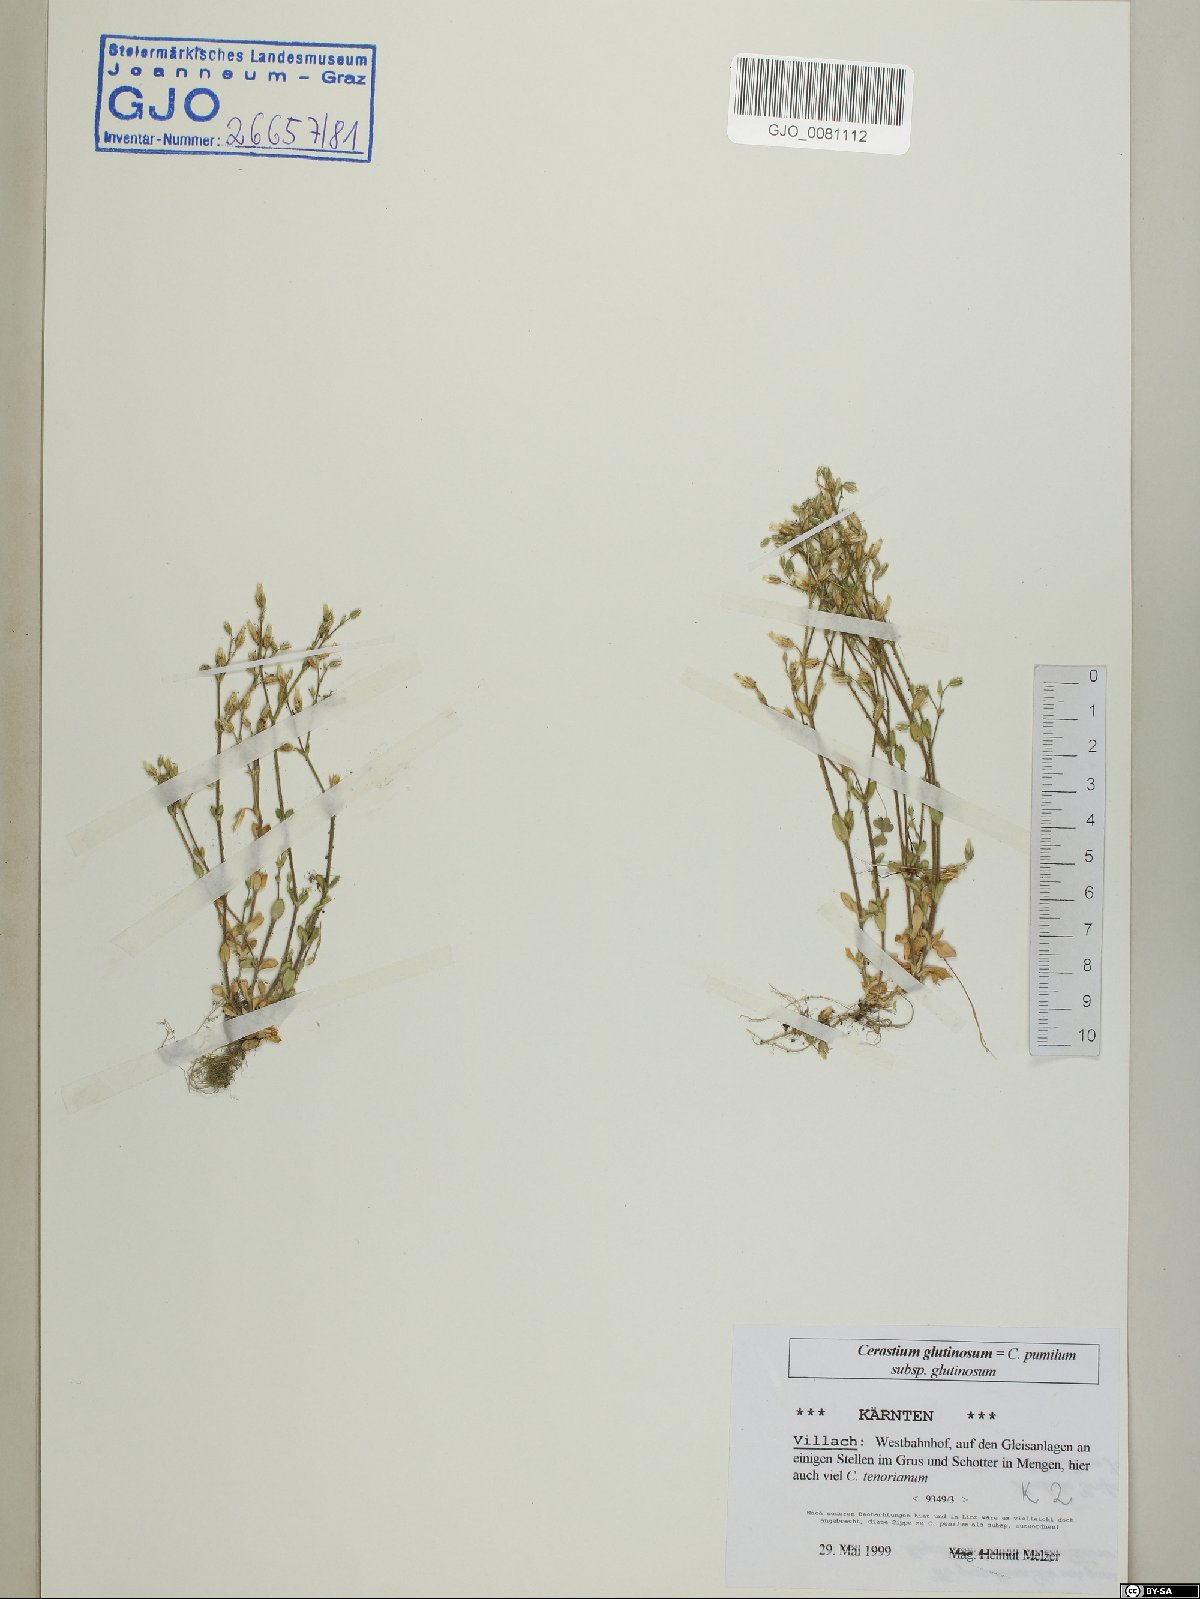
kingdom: Plantae
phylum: Tracheophyta
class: Magnoliopsida
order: Caryophyllales
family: Caryophyllaceae
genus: Cerastium
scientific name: Cerastium glutinosum
